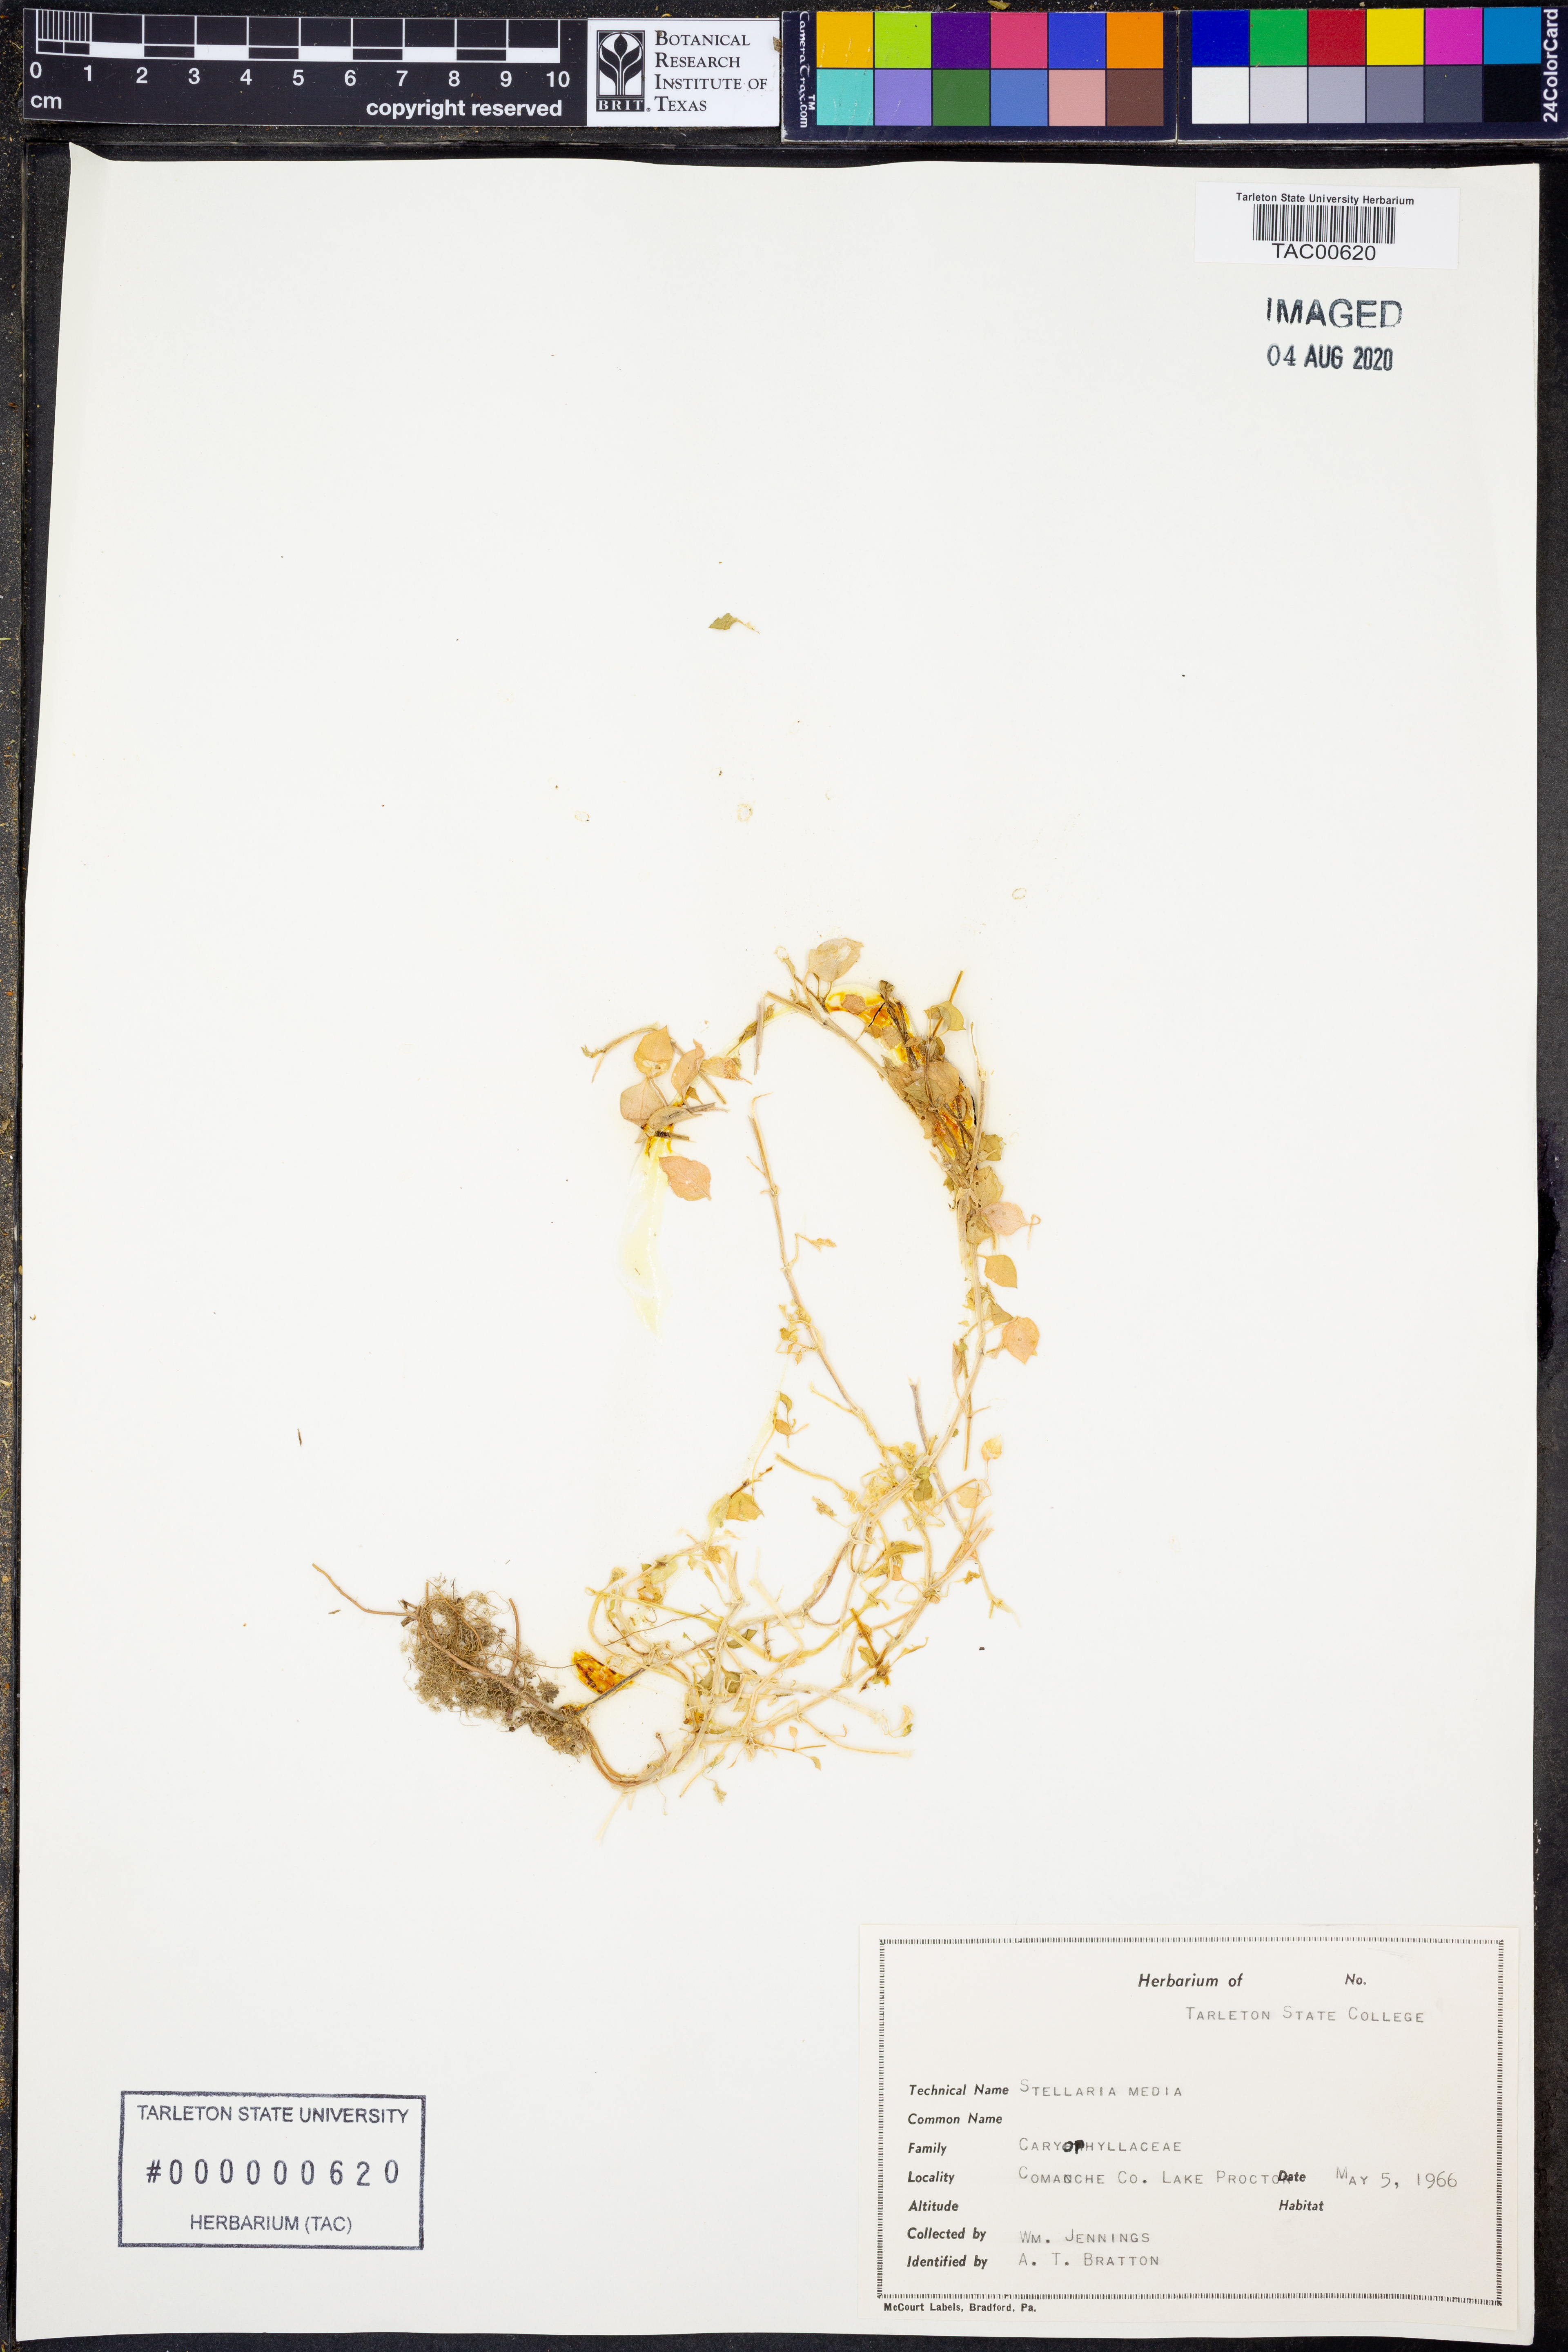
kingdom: Plantae
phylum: Tracheophyta
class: Magnoliopsida
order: Caryophyllales
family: Caryophyllaceae
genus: Stellaria
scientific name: Stellaria media
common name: Common chickweed
